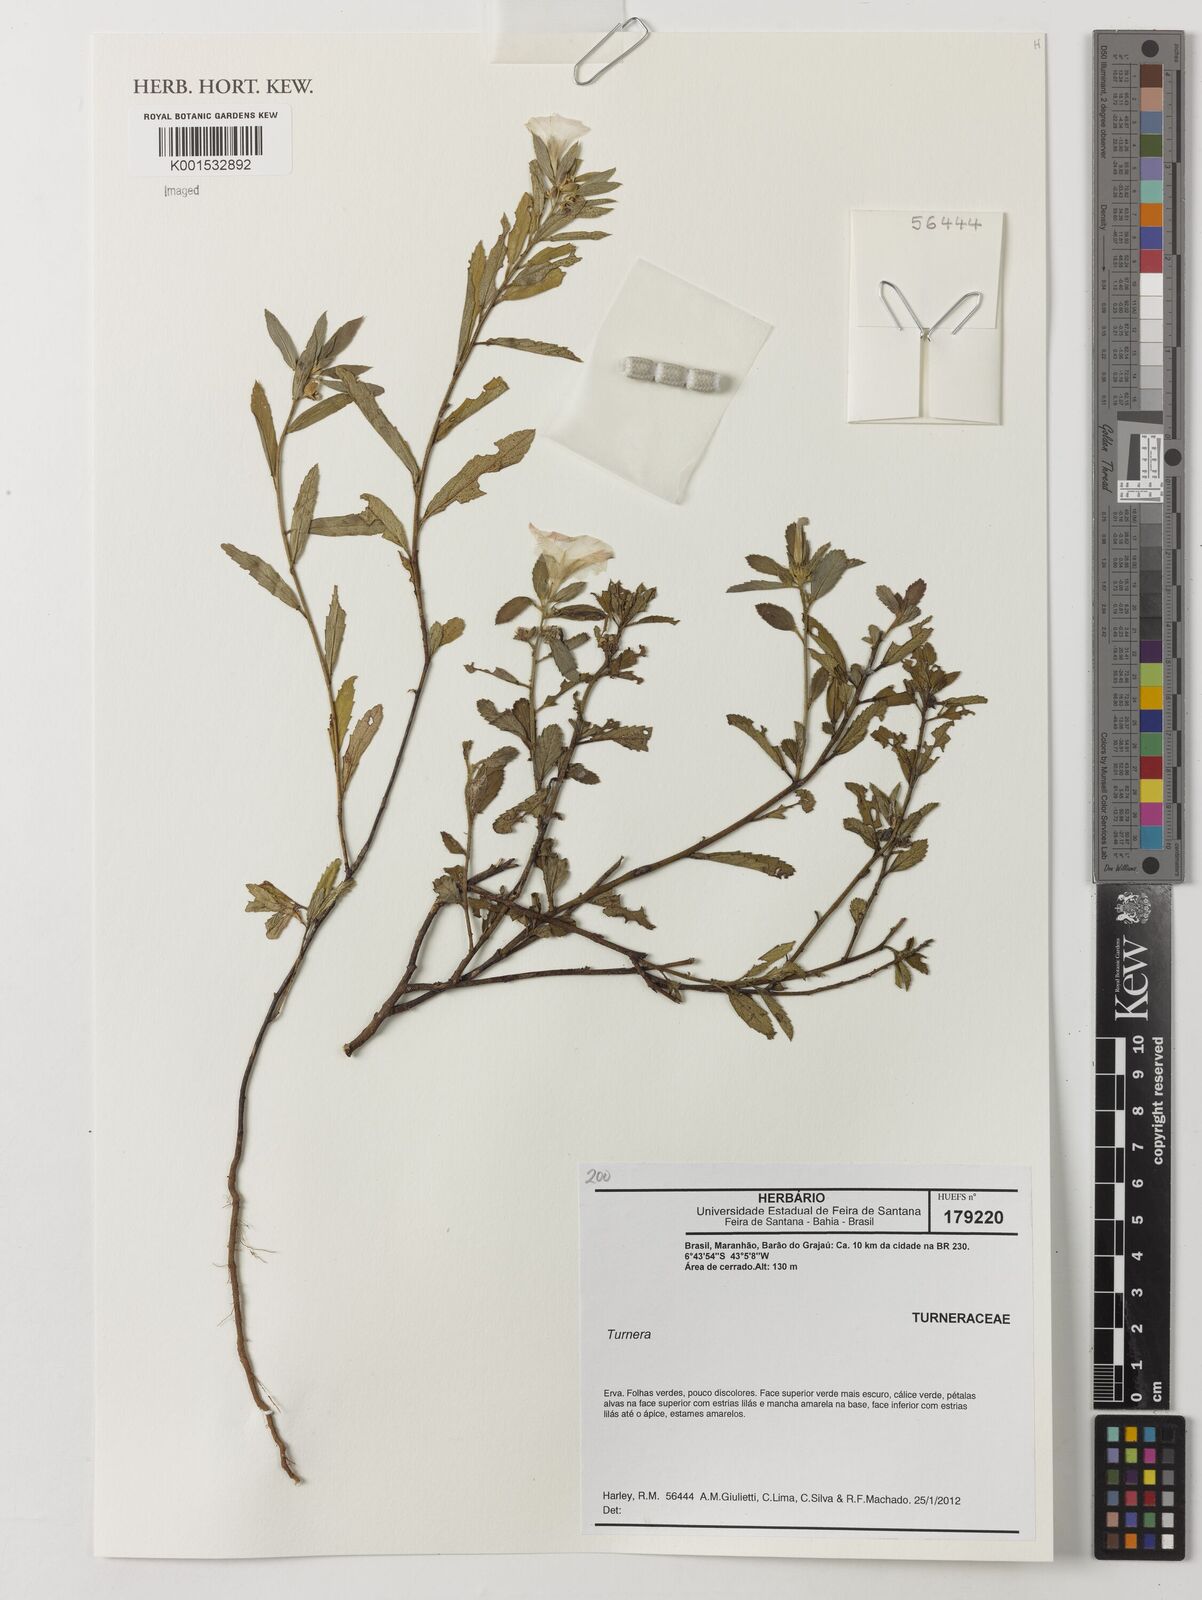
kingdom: Plantae
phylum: Tracheophyta
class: Magnoliopsida
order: Malpighiales
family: Turneraceae
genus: Turnera
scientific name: Turnera
